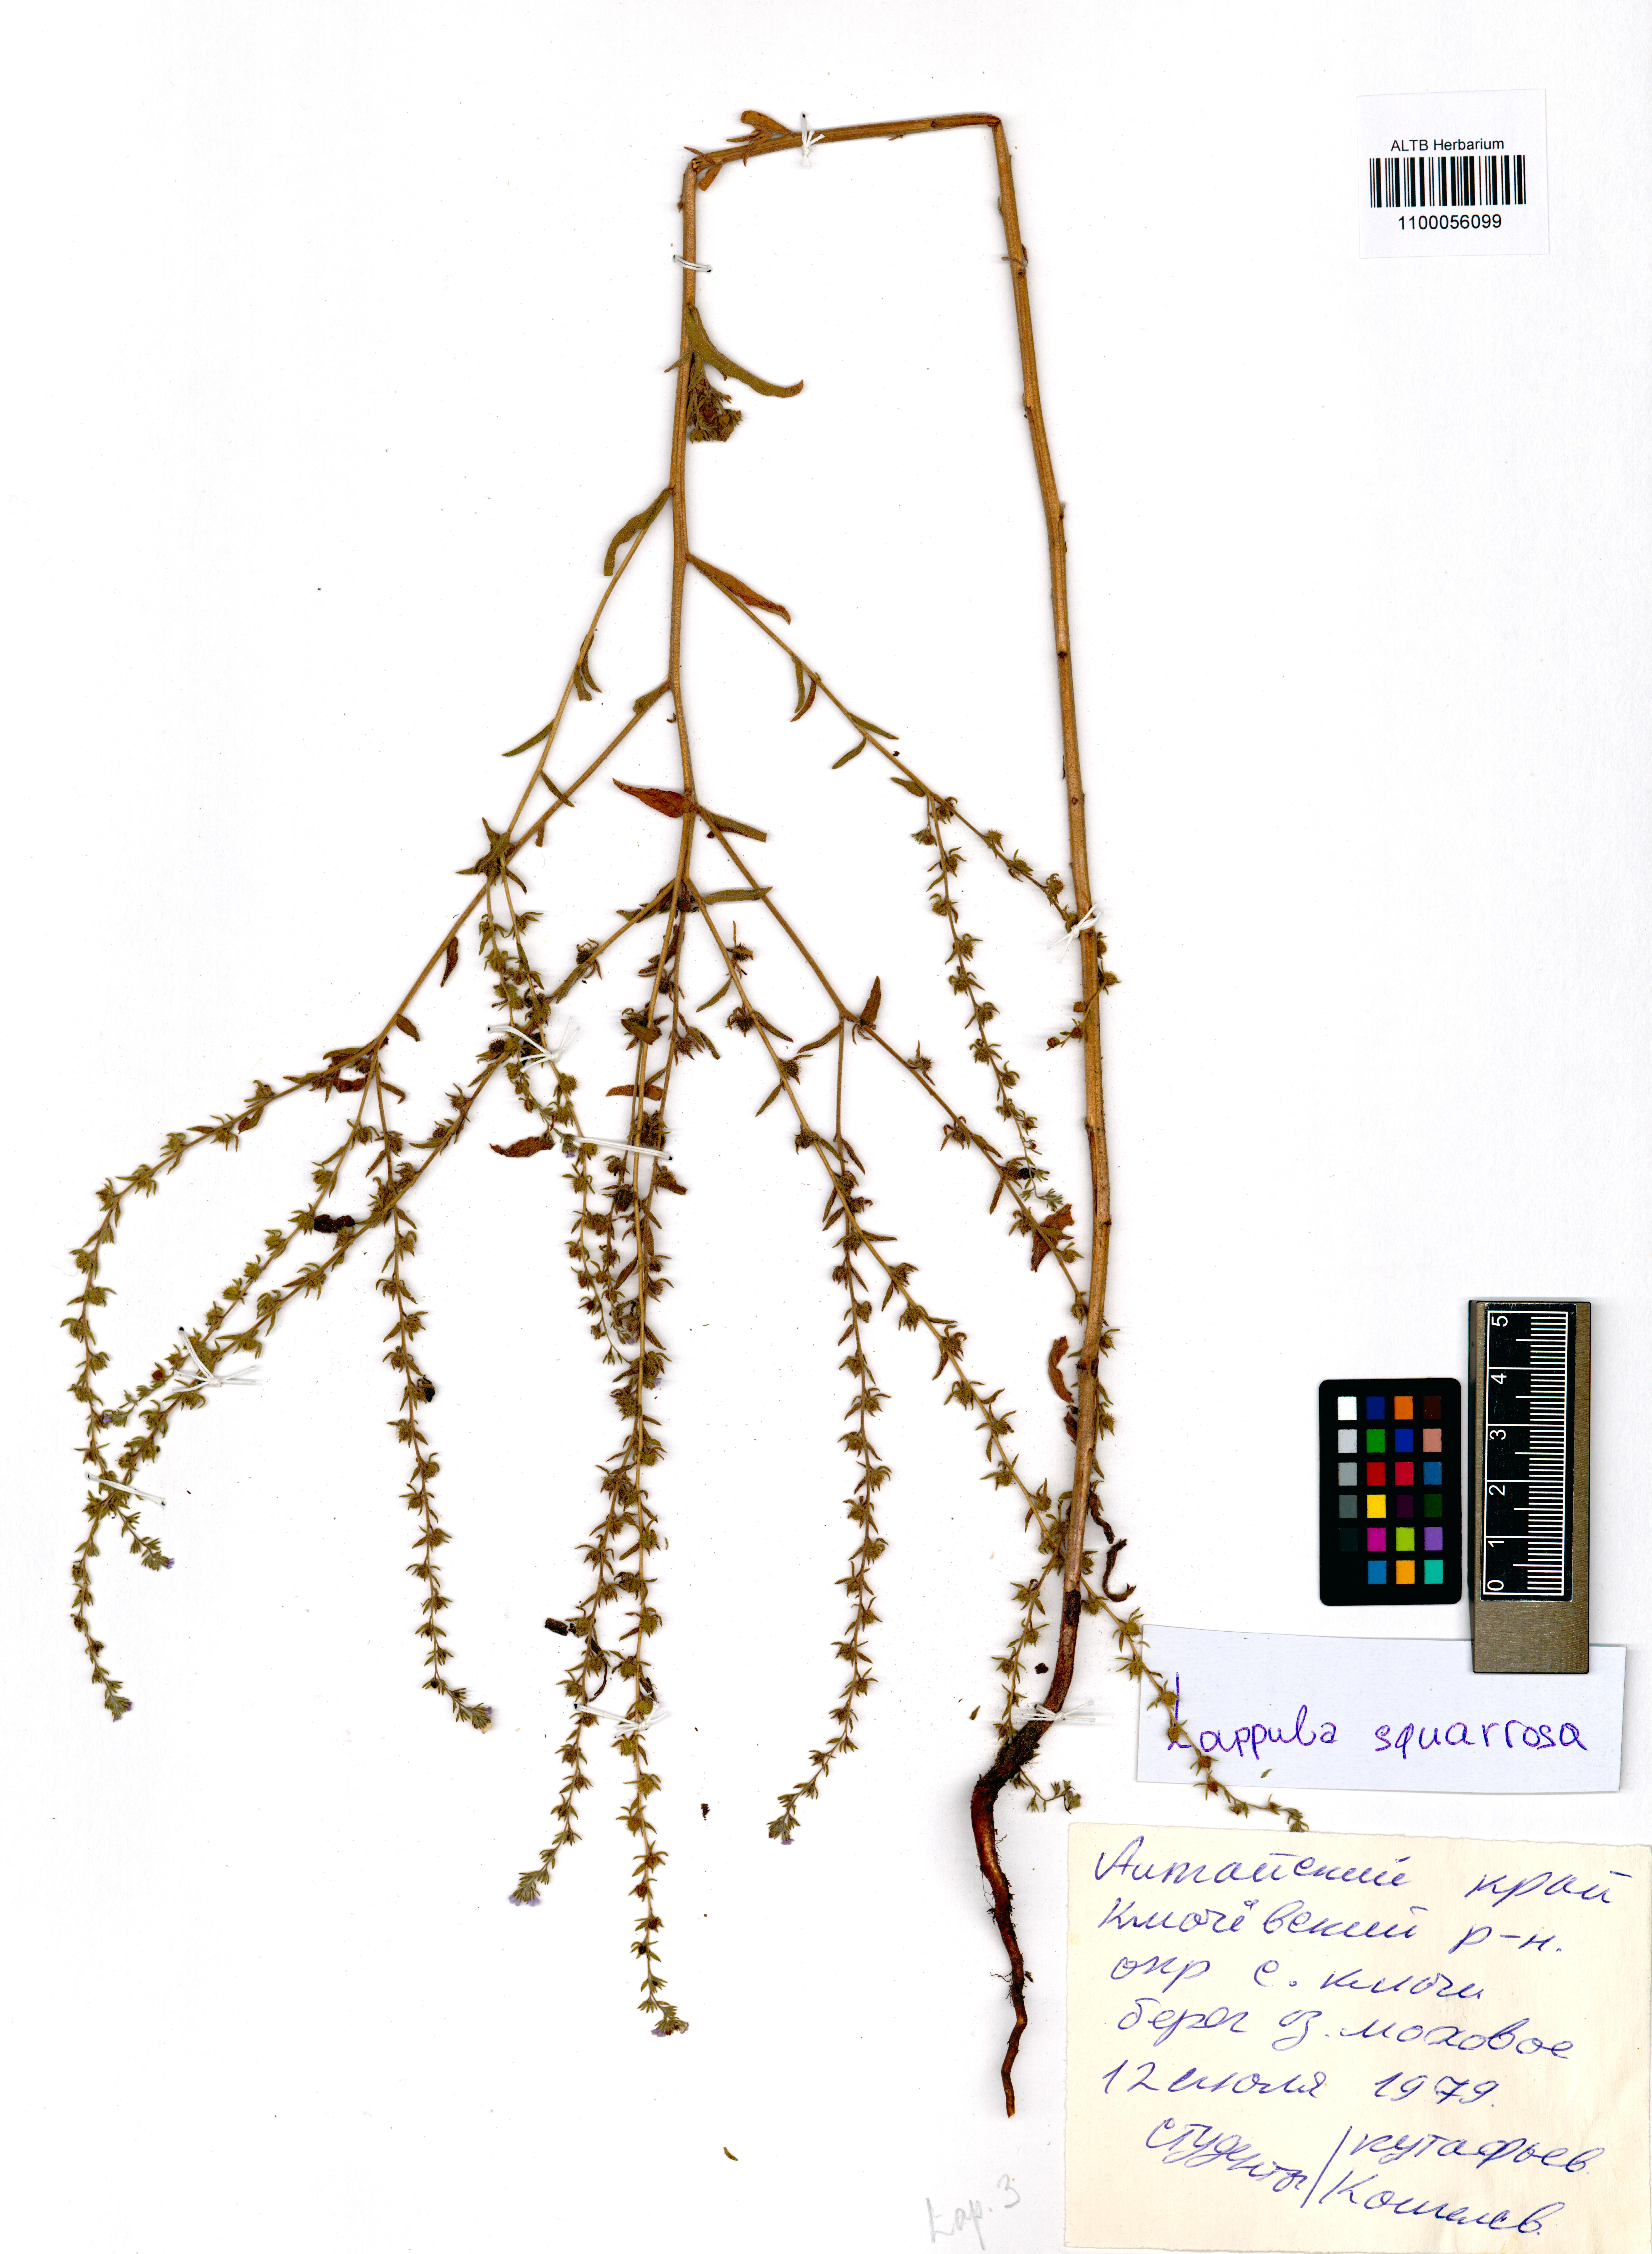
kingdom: Plantae
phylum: Tracheophyta
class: Magnoliopsida
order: Boraginales
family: Boraginaceae
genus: Lappula
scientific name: Lappula squarrosa
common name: European stickseed
